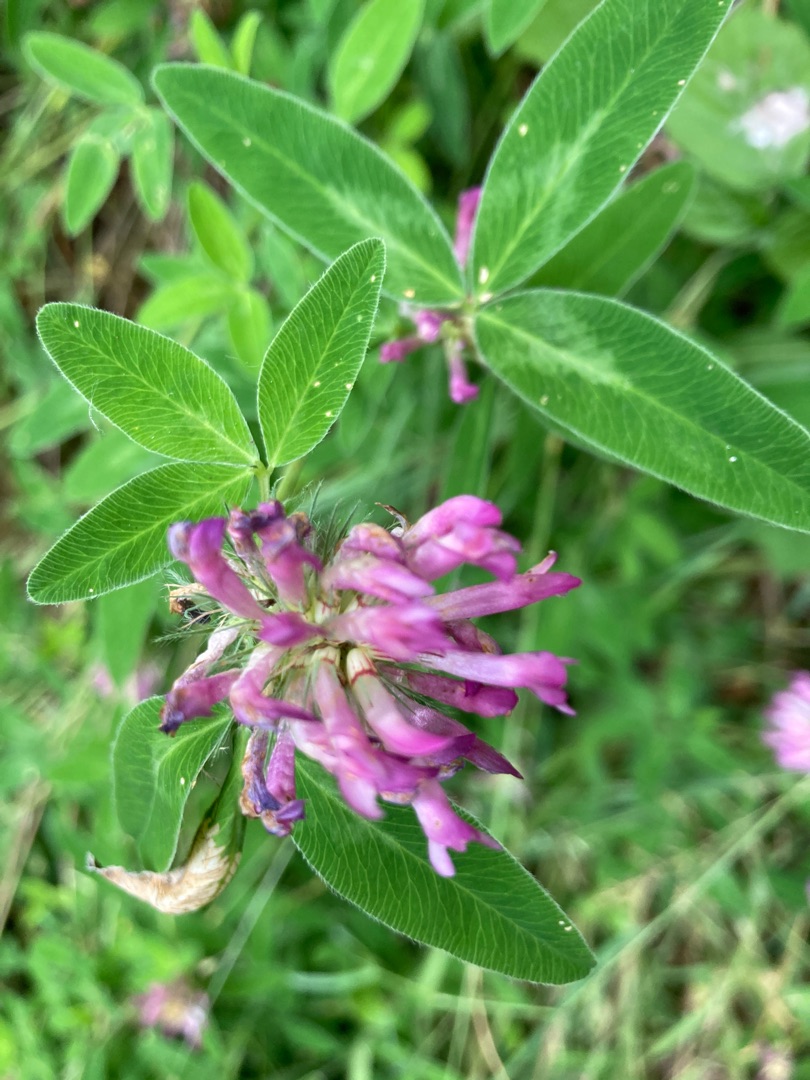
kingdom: Plantae
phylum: Tracheophyta
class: Magnoliopsida
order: Fabales
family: Fabaceae
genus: Trifolium
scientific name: Trifolium medium
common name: Bugtet kløver
